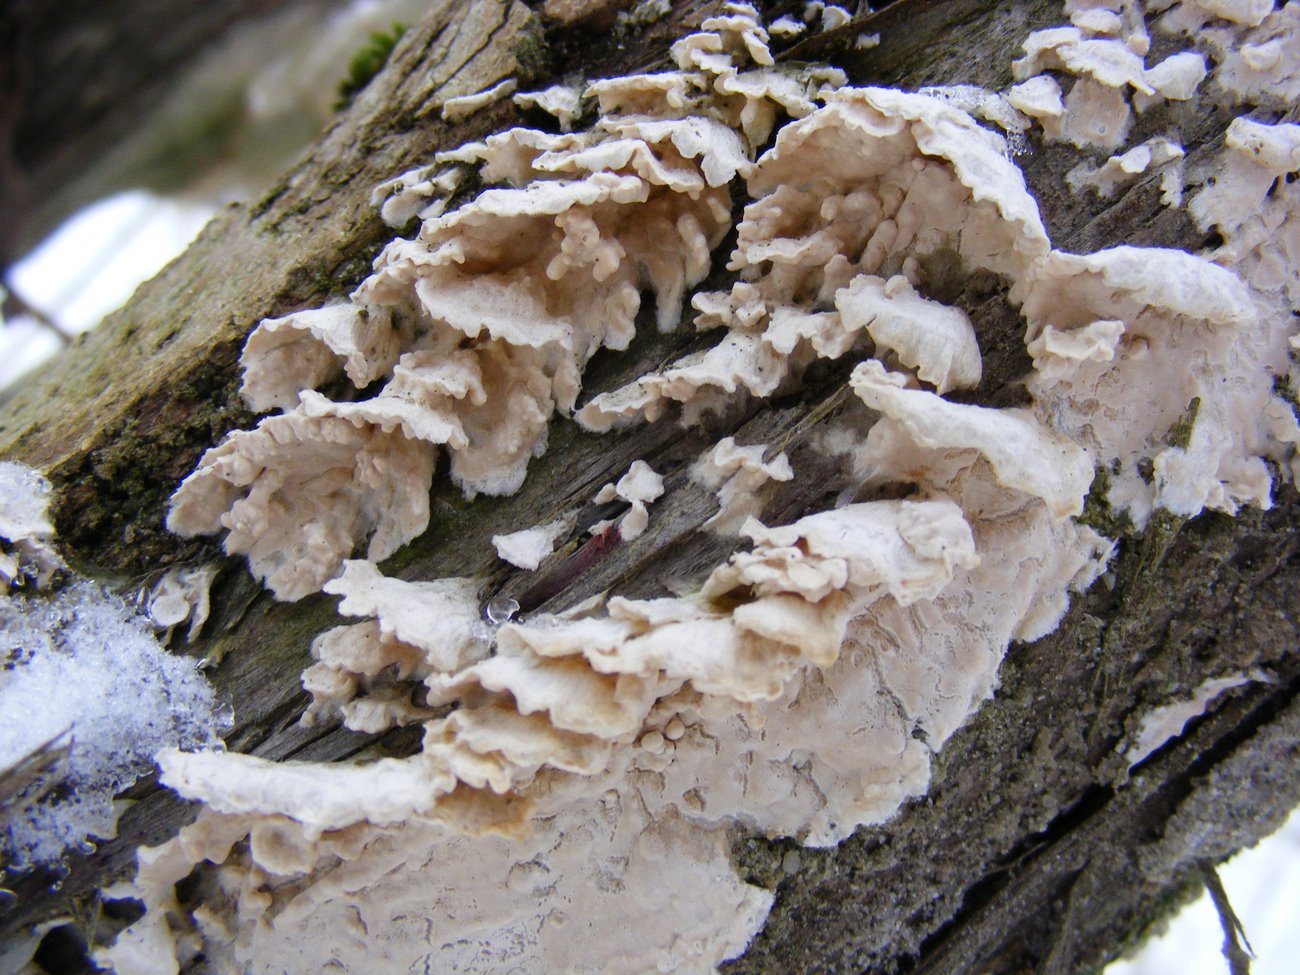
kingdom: Fungi
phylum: Basidiomycota
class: Agaricomycetes
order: Polyporales
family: Irpicaceae
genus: Byssomerulius
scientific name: Byssomerulius corium
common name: læder-åresvamp
